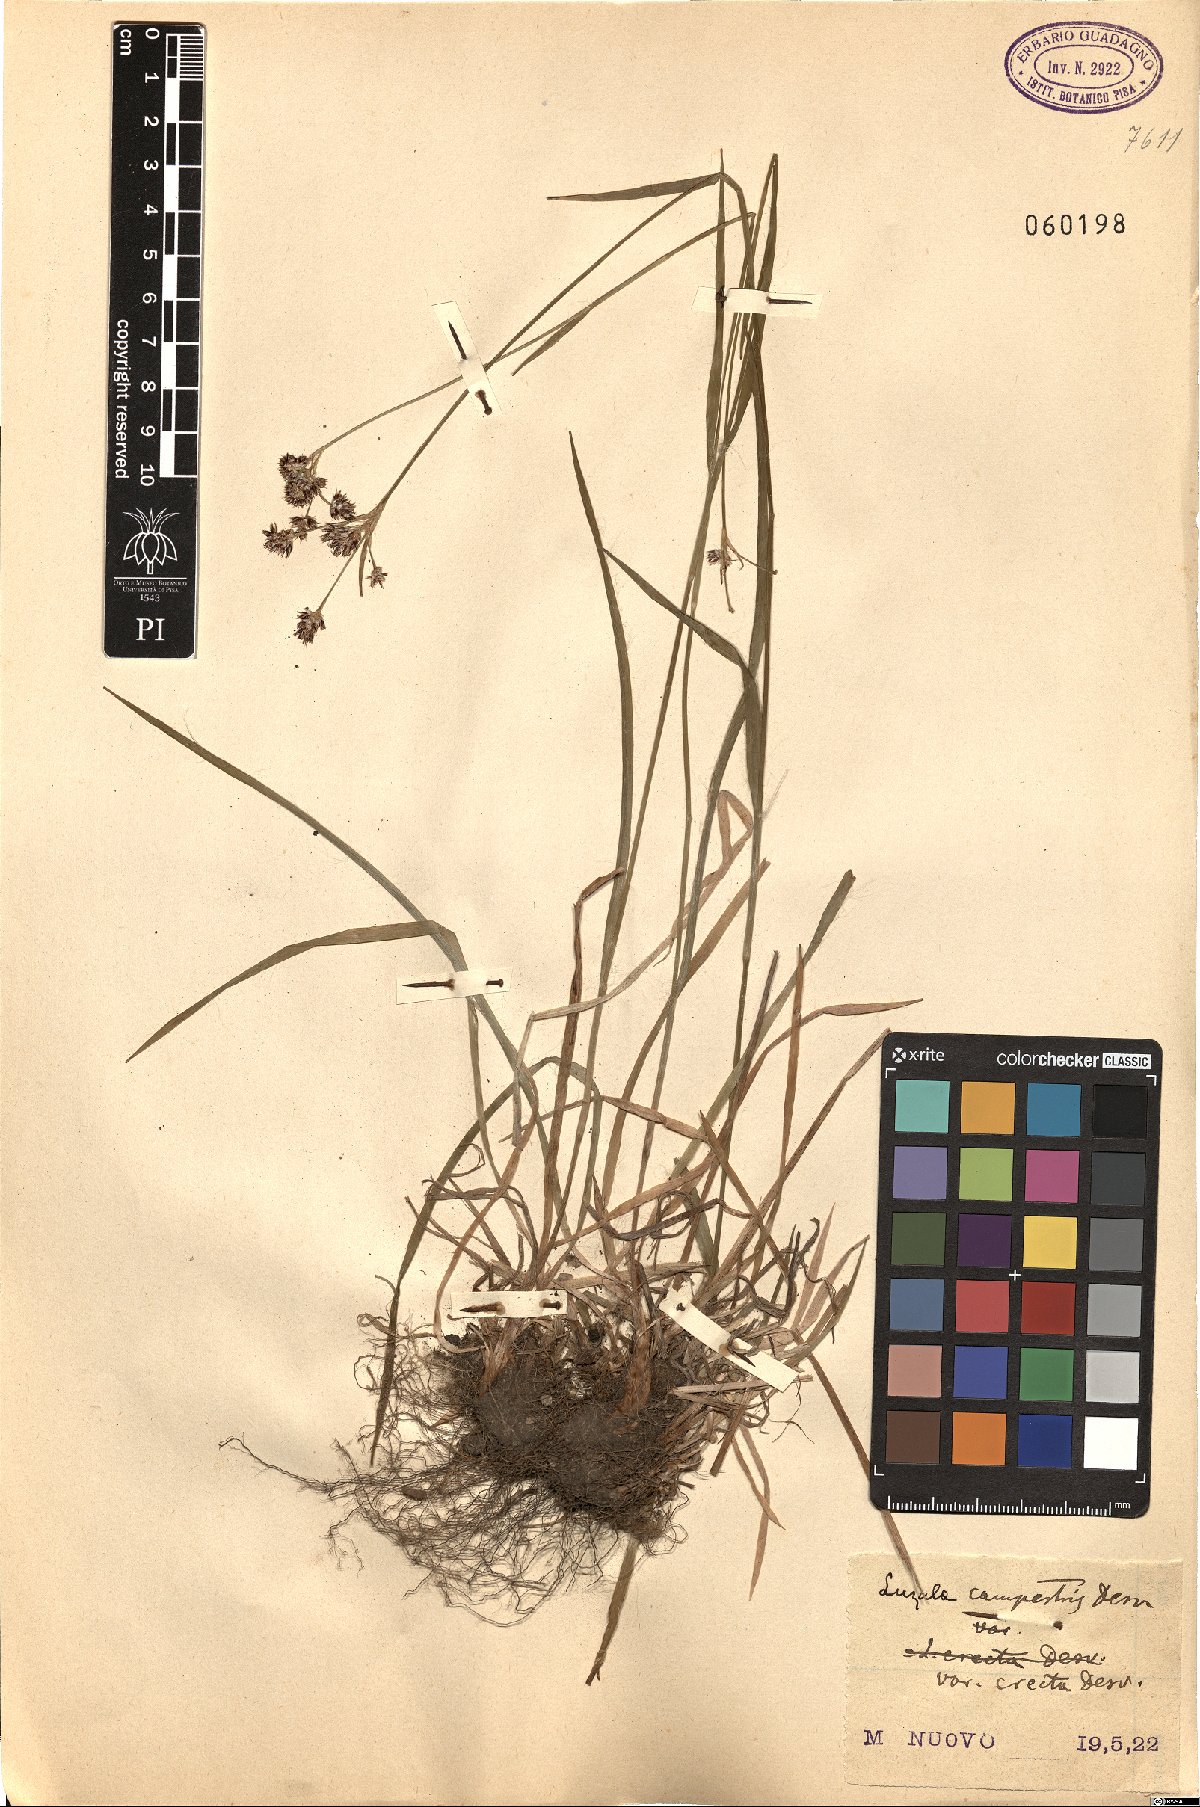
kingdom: Plantae
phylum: Tracheophyta
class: Liliopsida
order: Poales
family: Juncaceae
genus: Luzula
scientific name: Luzula multiflora
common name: Heath wood-rush
